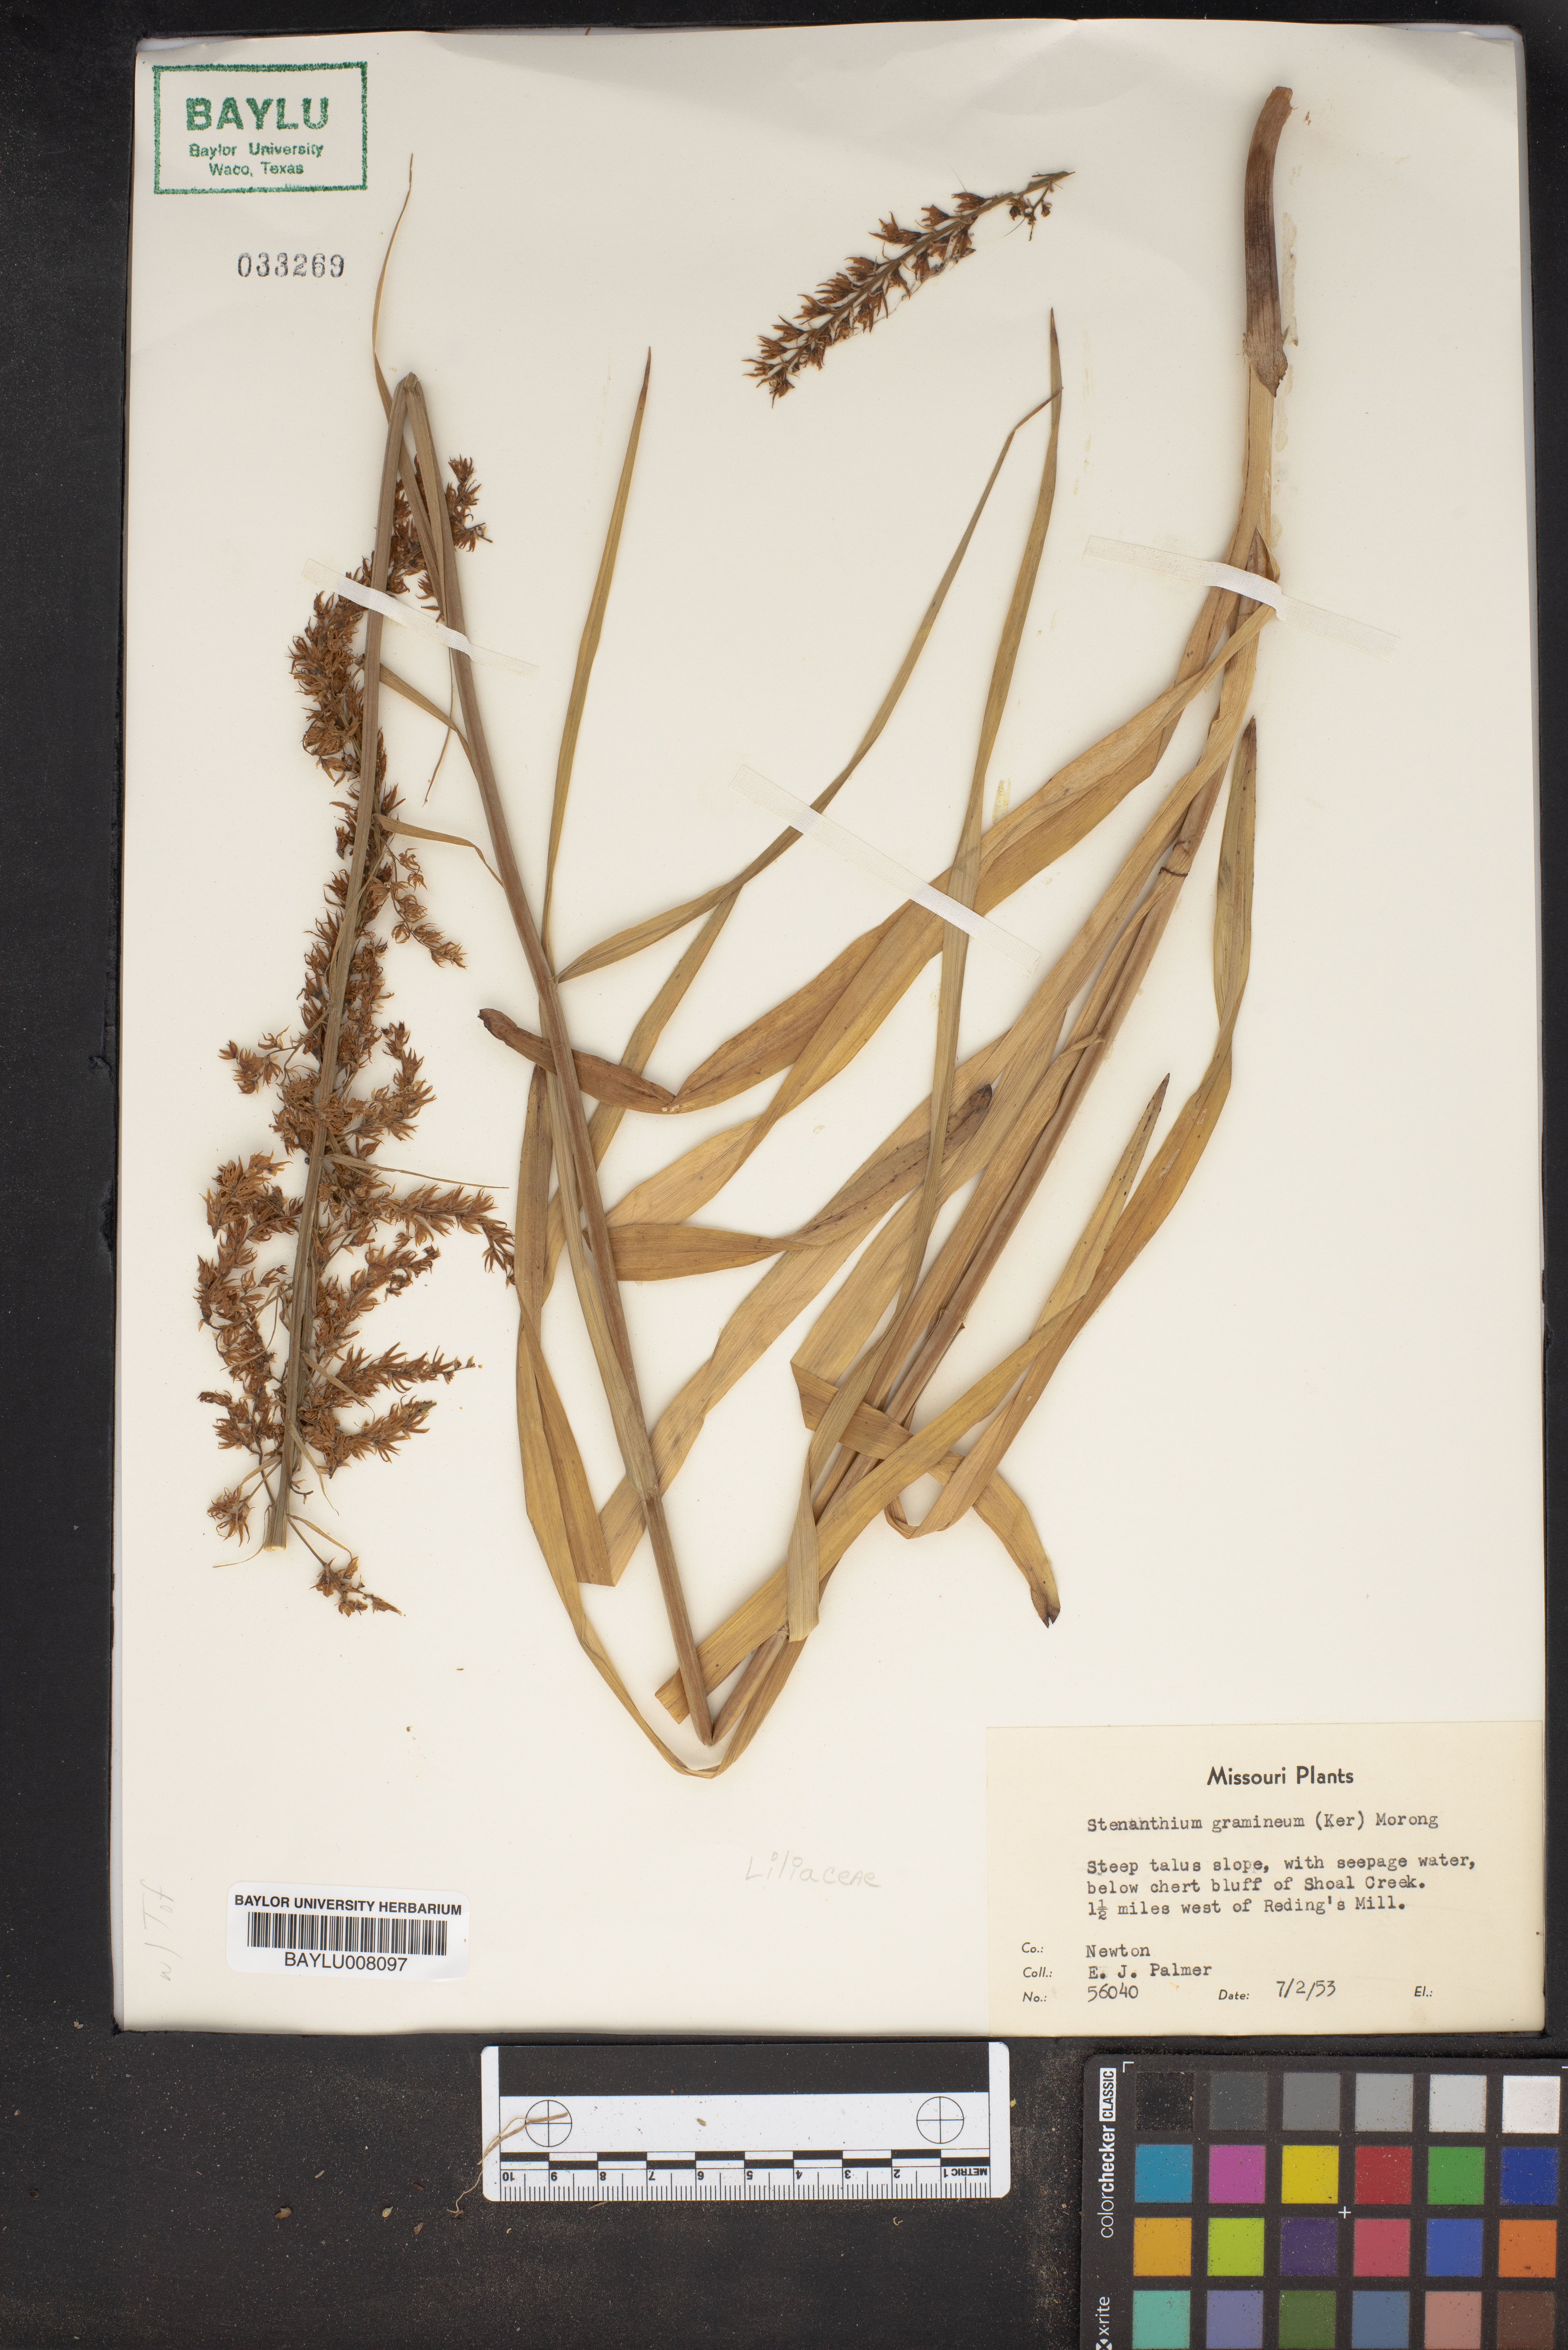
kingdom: Plantae
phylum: Tracheophyta
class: Liliopsida
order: Liliales
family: Melanthiaceae
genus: Stenanthium
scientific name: Stenanthium gramineum
